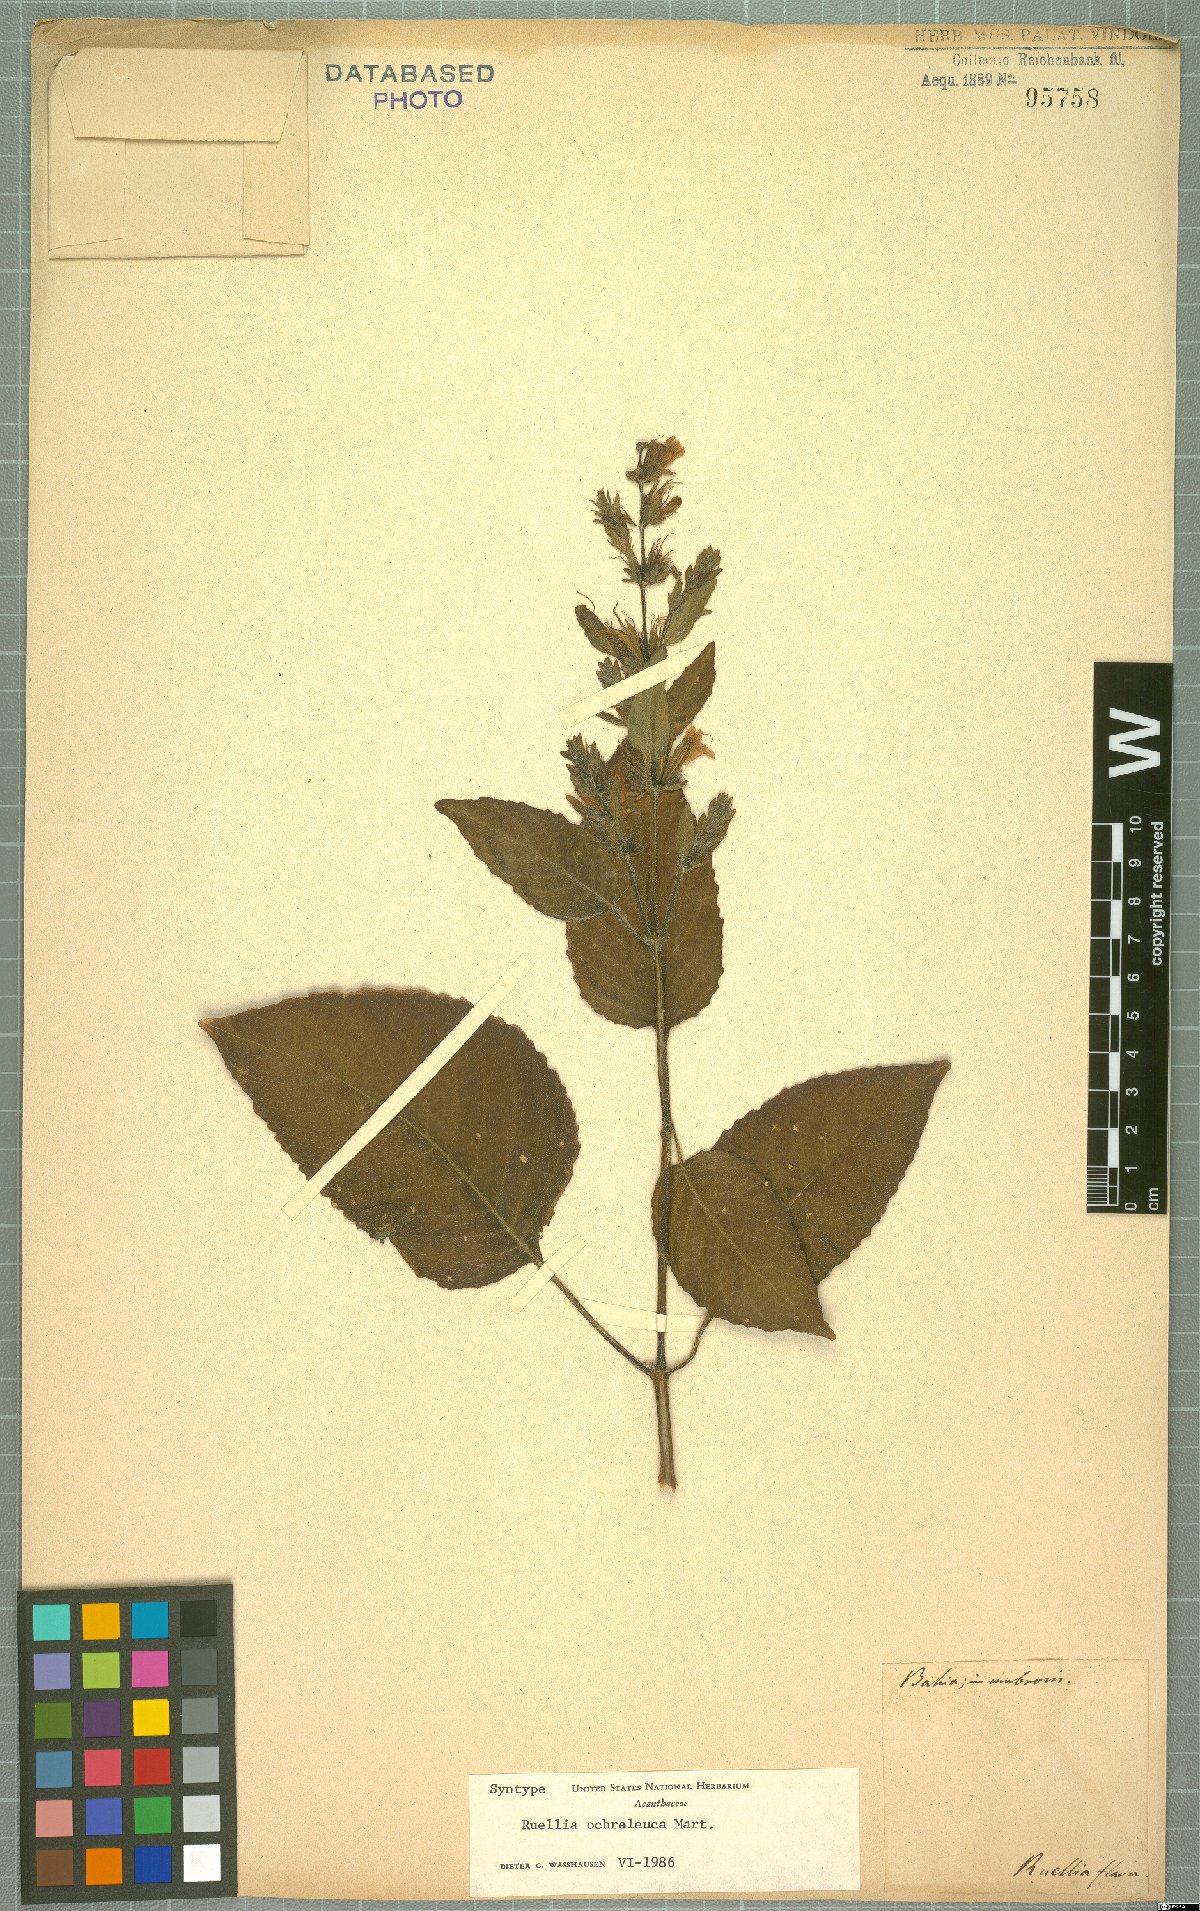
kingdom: Plantae
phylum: Tracheophyta
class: Magnoliopsida
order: Lamiales
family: Acanthaceae
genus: Ruellia
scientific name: Ruellia ochroleuca
